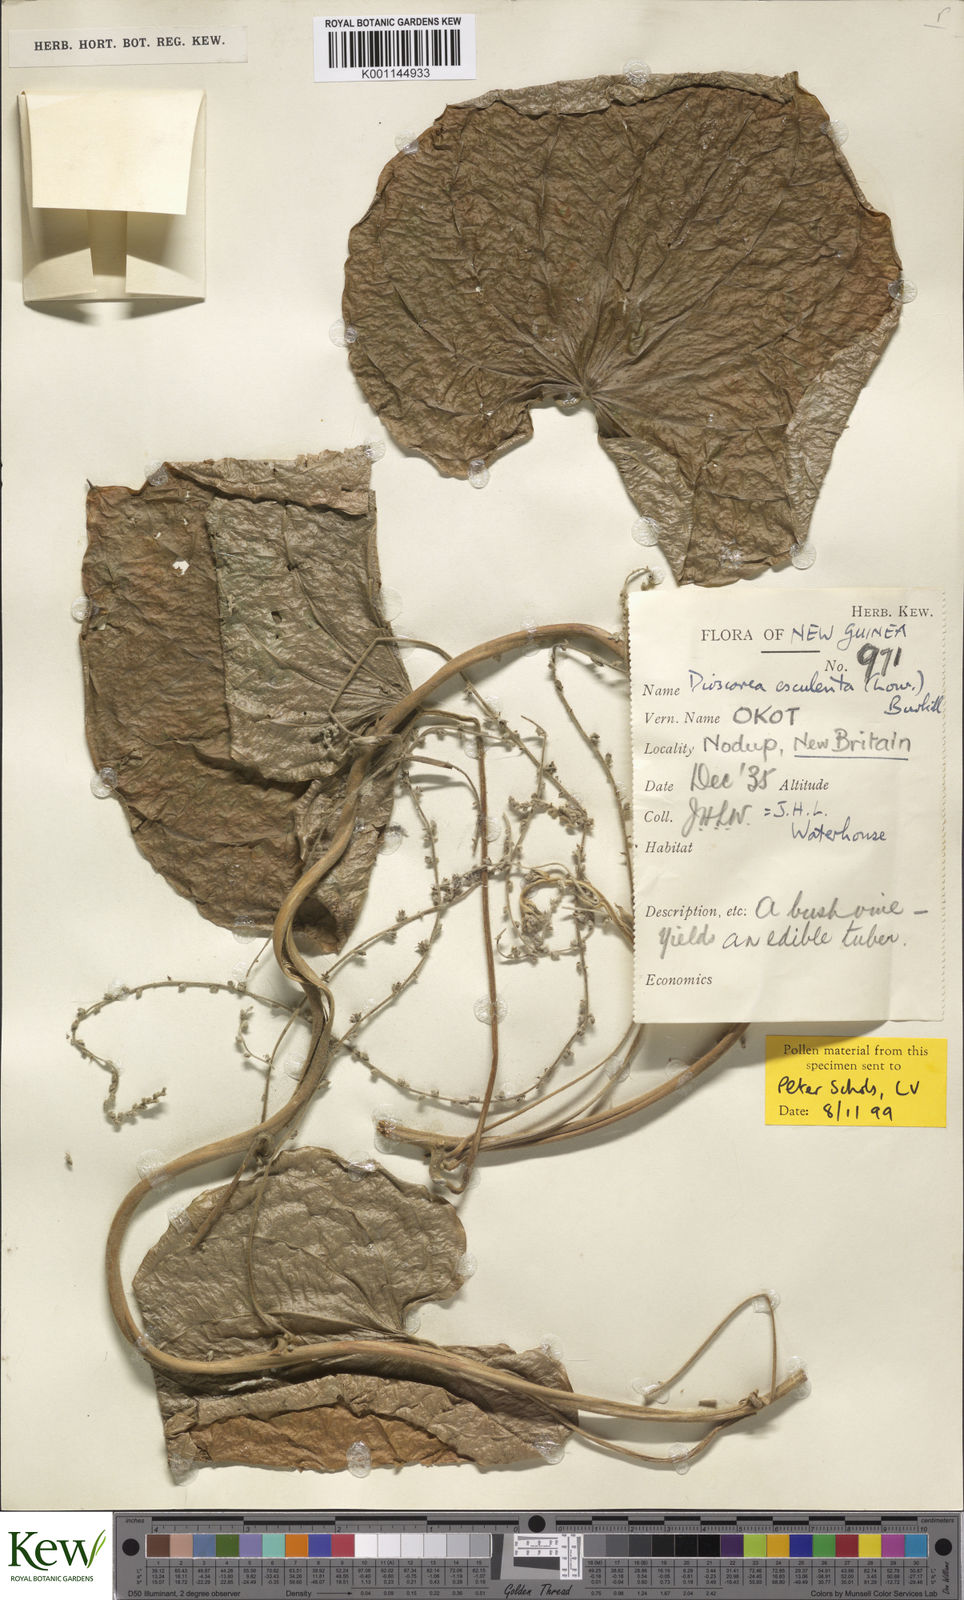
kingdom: Plantae
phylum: Tracheophyta
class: Liliopsida
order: Dioscoreales
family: Dioscoreaceae
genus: Dioscorea
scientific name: Dioscorea esculenta
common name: Chinese yam
